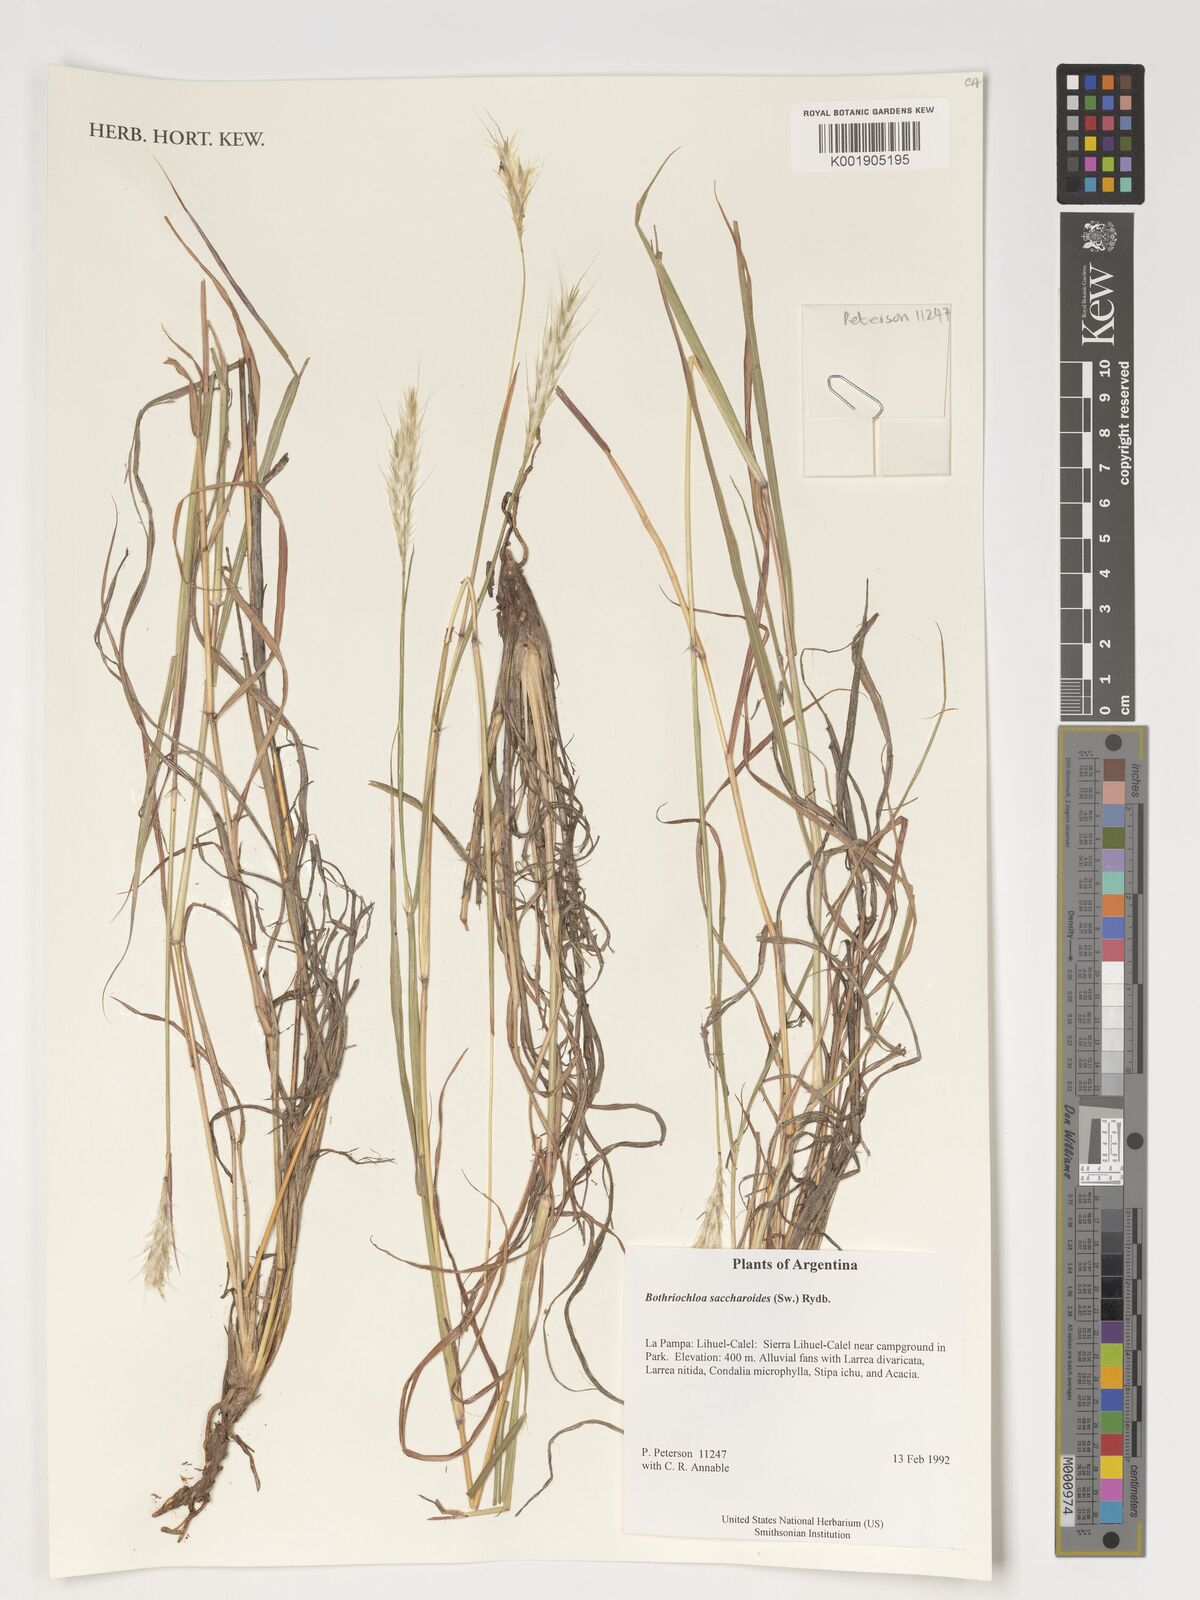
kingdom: Plantae
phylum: Tracheophyta
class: Liliopsida
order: Poales
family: Poaceae
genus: Bothriochloa
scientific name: Bothriochloa saccharoides
